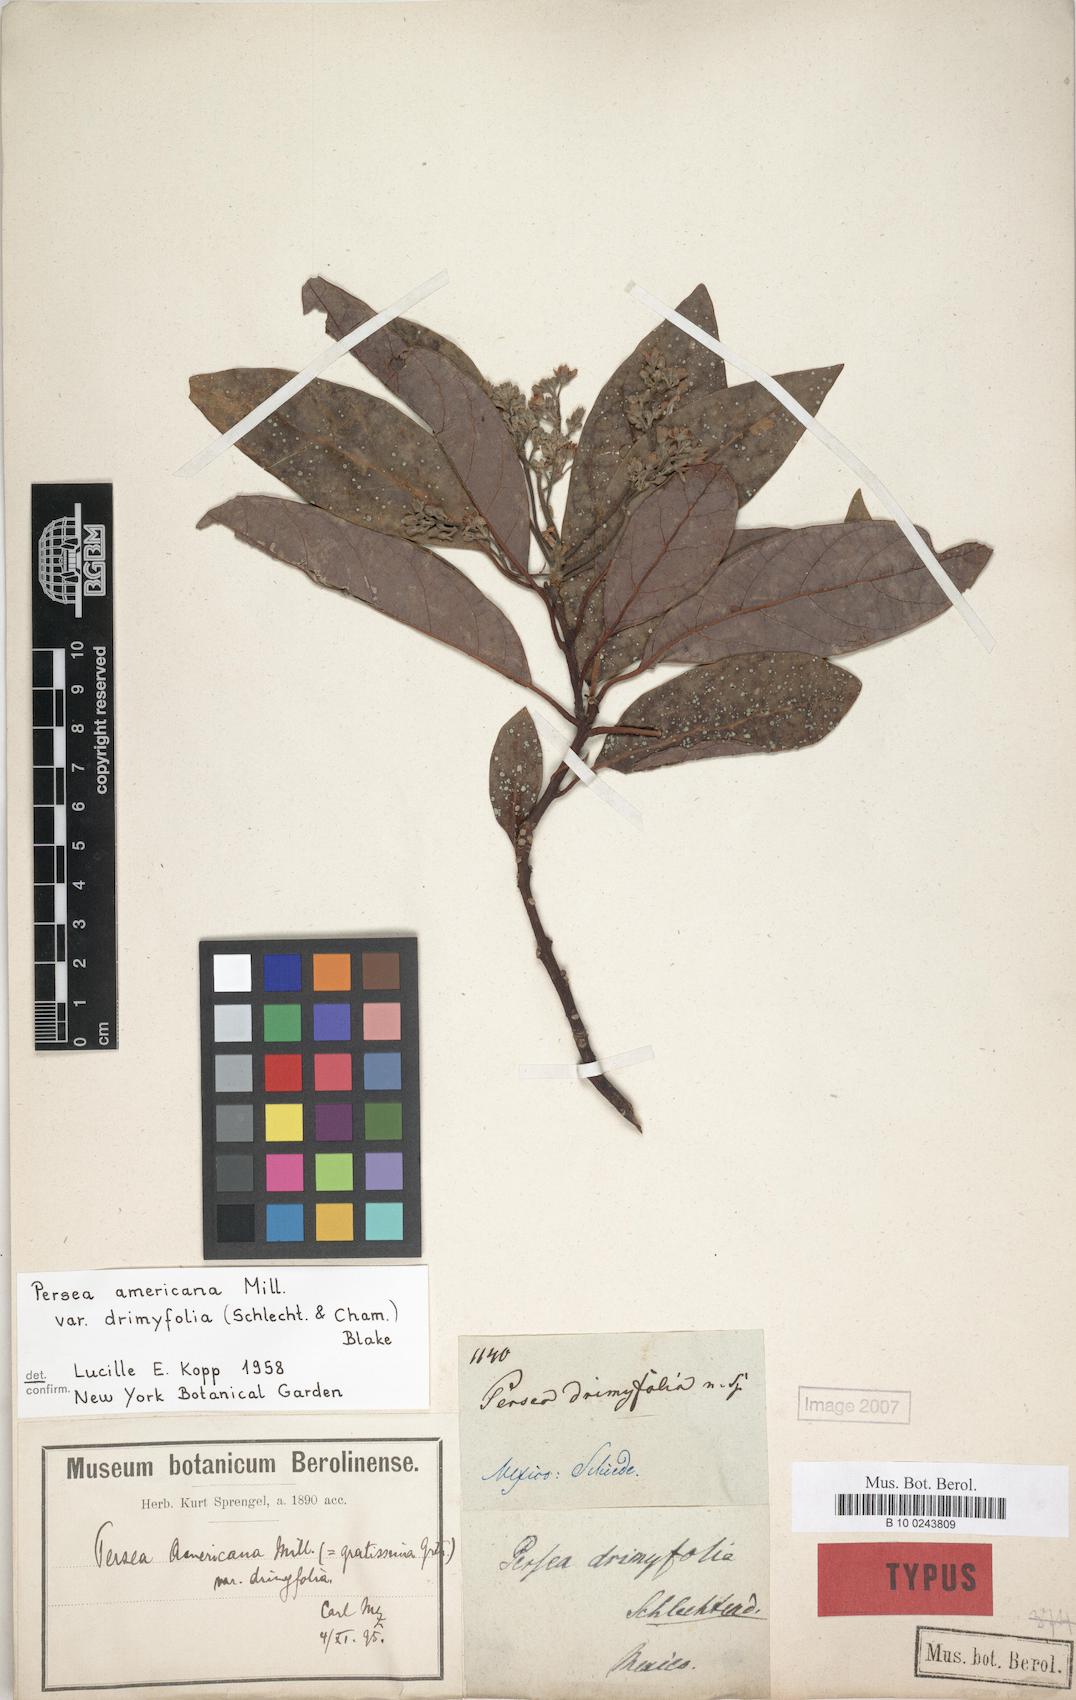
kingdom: Plantae
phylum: Tracheophyta
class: Magnoliopsida
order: Laurales
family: Lauraceae
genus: Persea
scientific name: Persea americana
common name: Avocado
